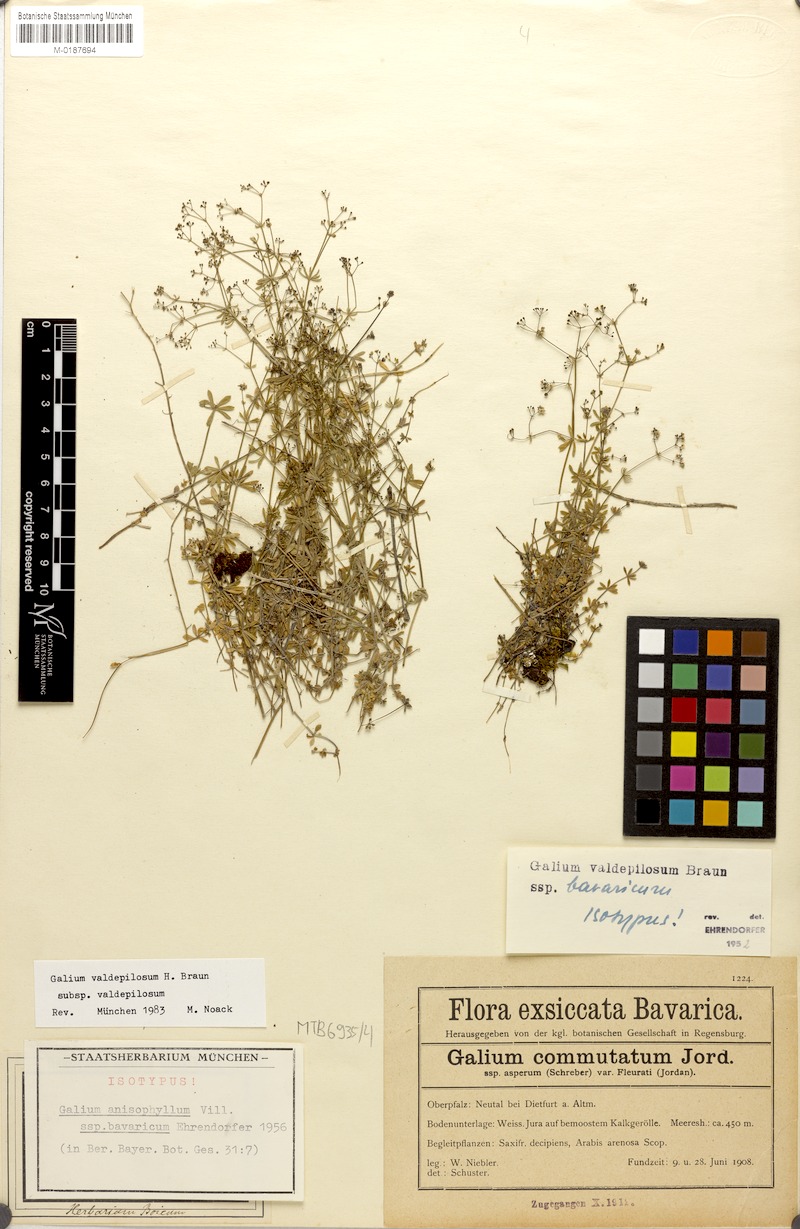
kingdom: Plantae
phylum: Tracheophyta
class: Magnoliopsida
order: Gentianales
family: Rubiaceae
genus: Galium
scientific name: Galium valdepilosum
